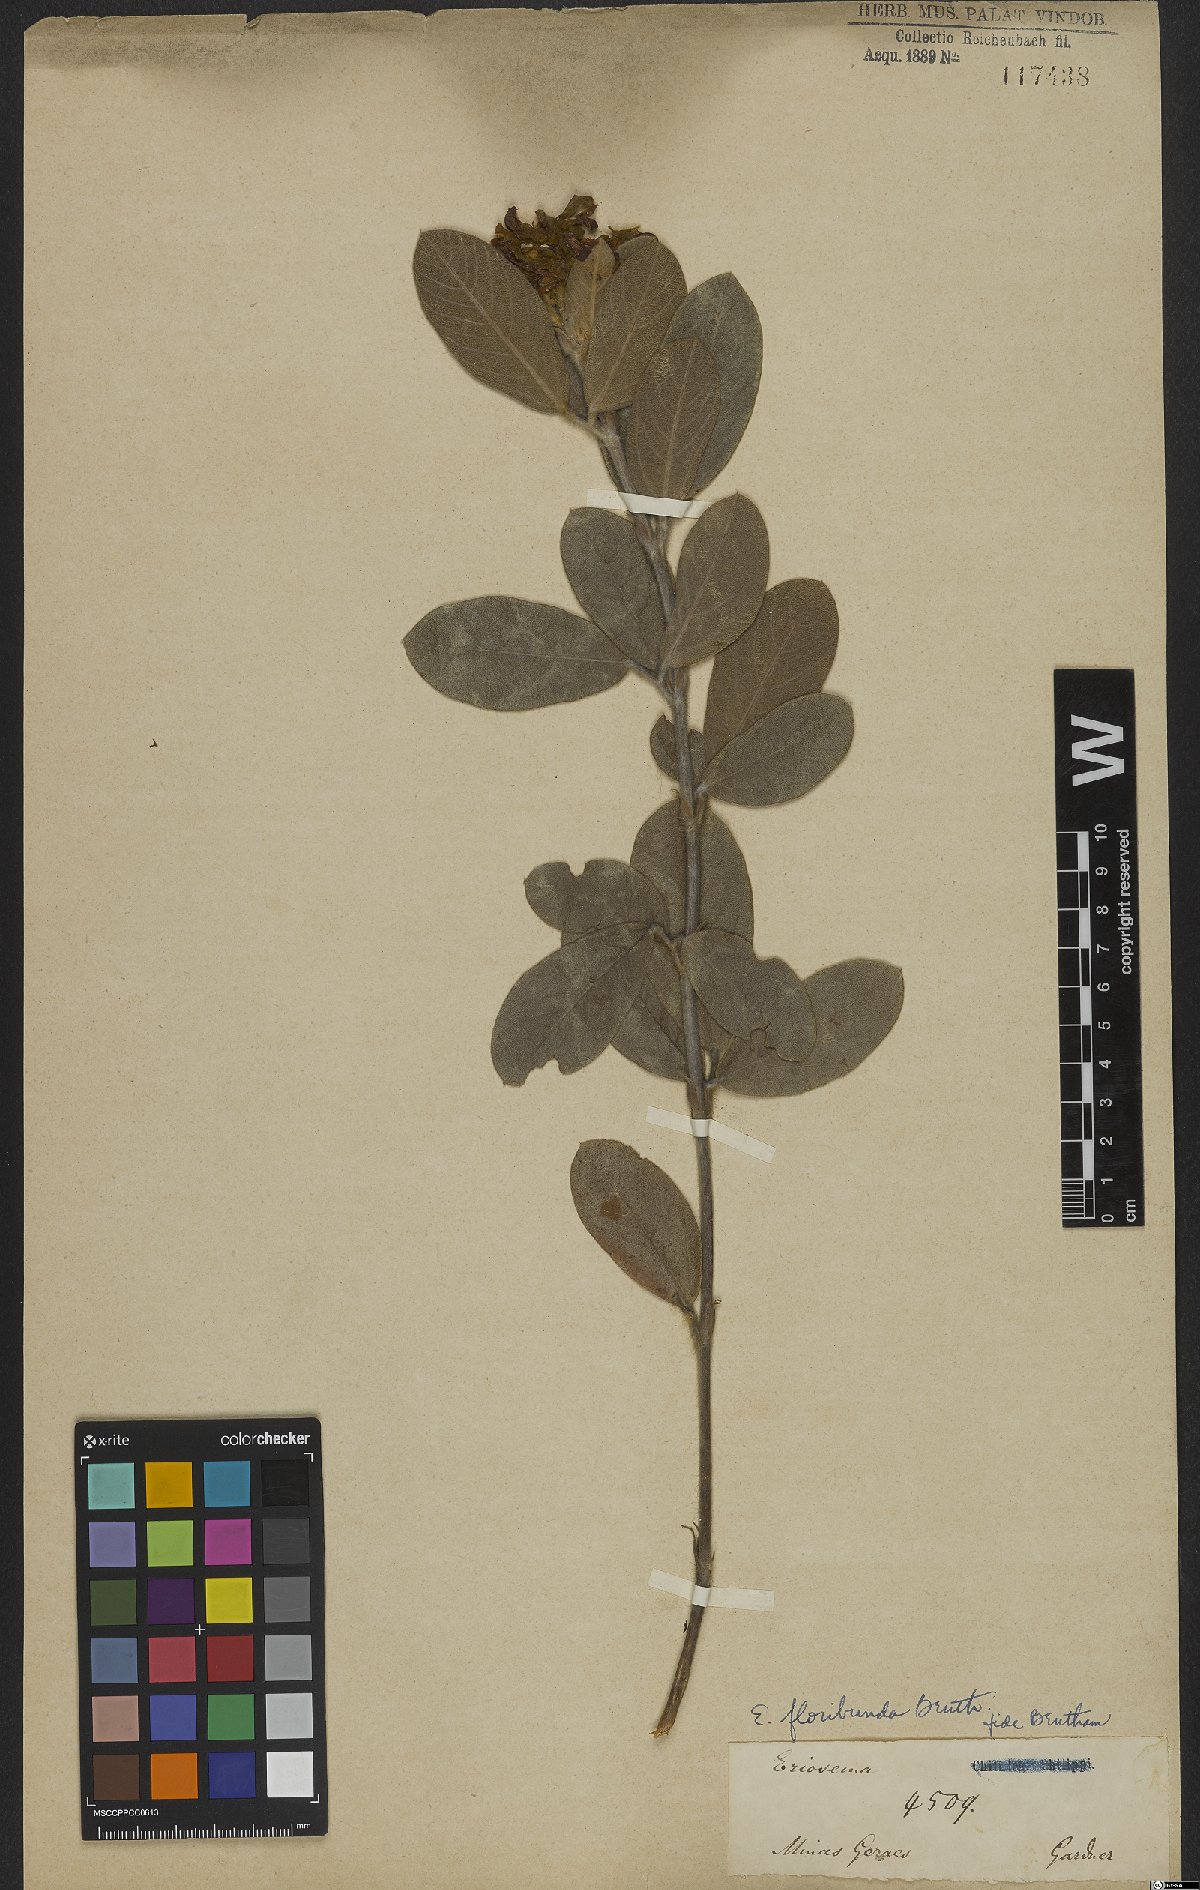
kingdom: Plantae
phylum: Tracheophyta
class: Magnoliopsida
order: Fabales
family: Fabaceae
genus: Eriosema
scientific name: Eriosema floribundum
